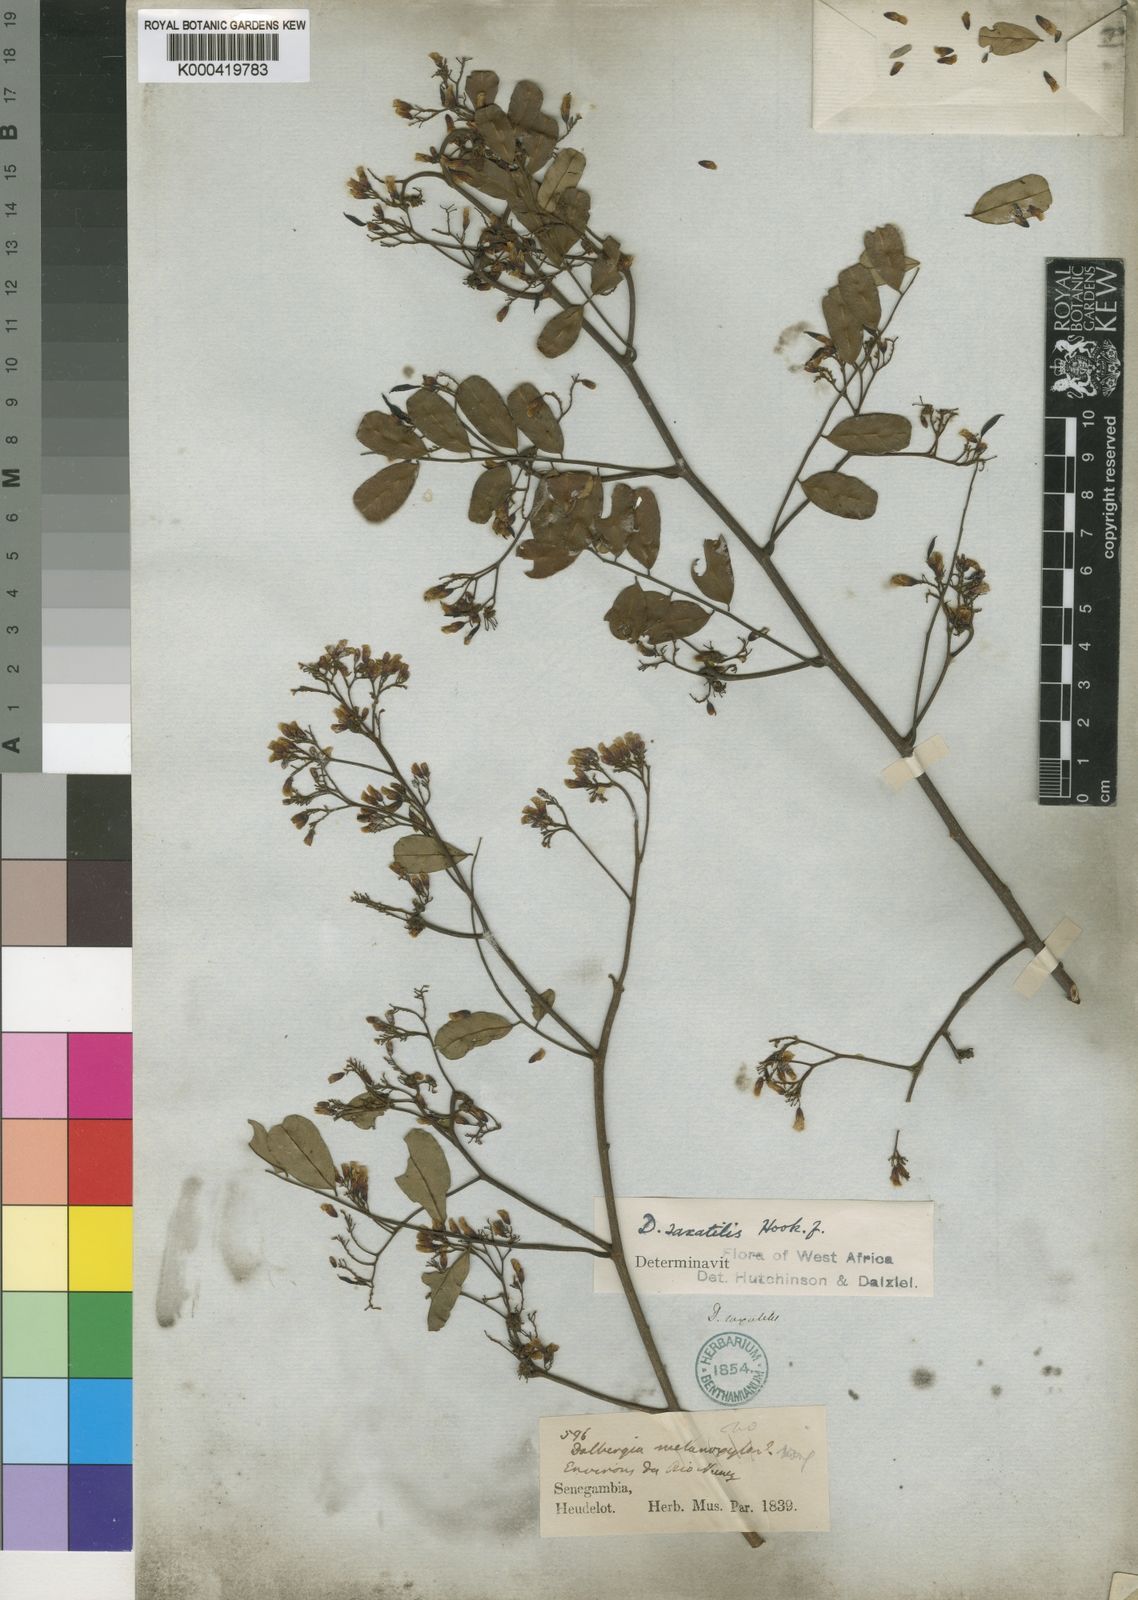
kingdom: Plantae
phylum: Tracheophyta
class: Magnoliopsida
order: Fabales
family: Fabaceae
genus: Dalbergia
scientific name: Dalbergia saxatilis
